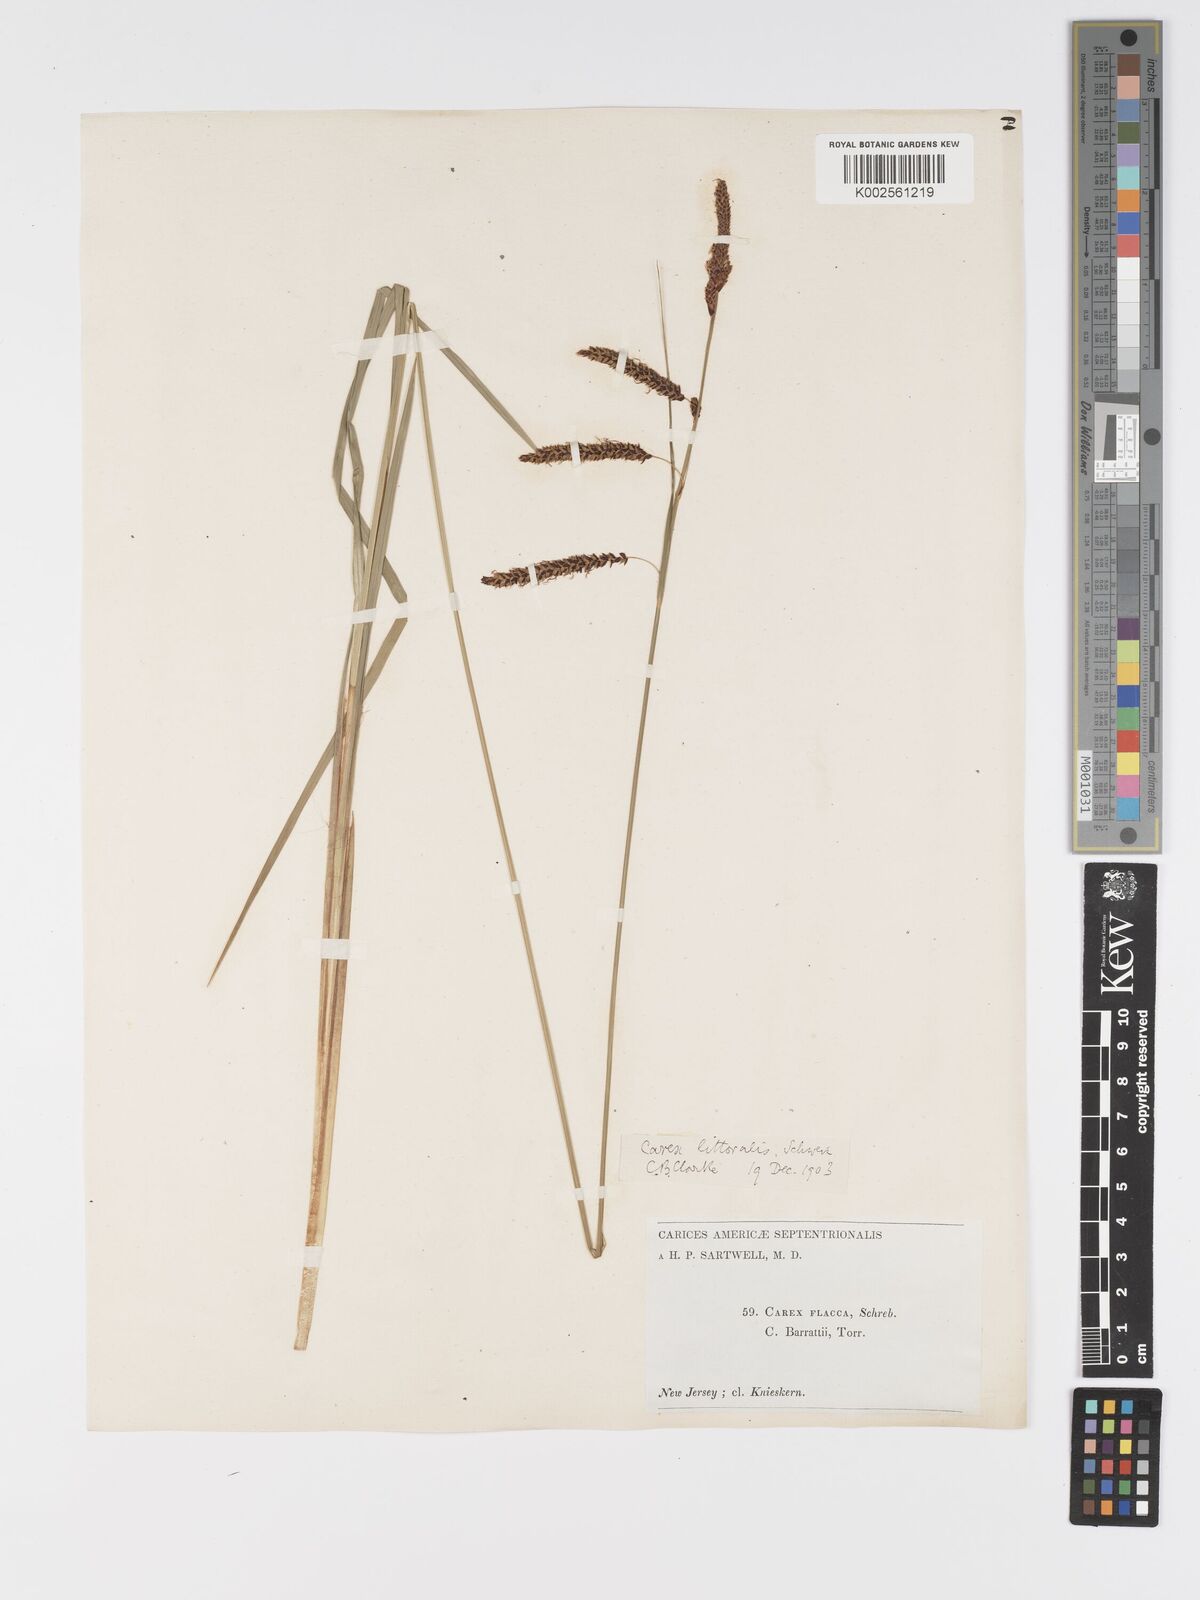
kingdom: Plantae
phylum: Tracheophyta
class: Liliopsida
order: Poales
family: Cyperaceae
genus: Carex
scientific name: Carex barrattii
